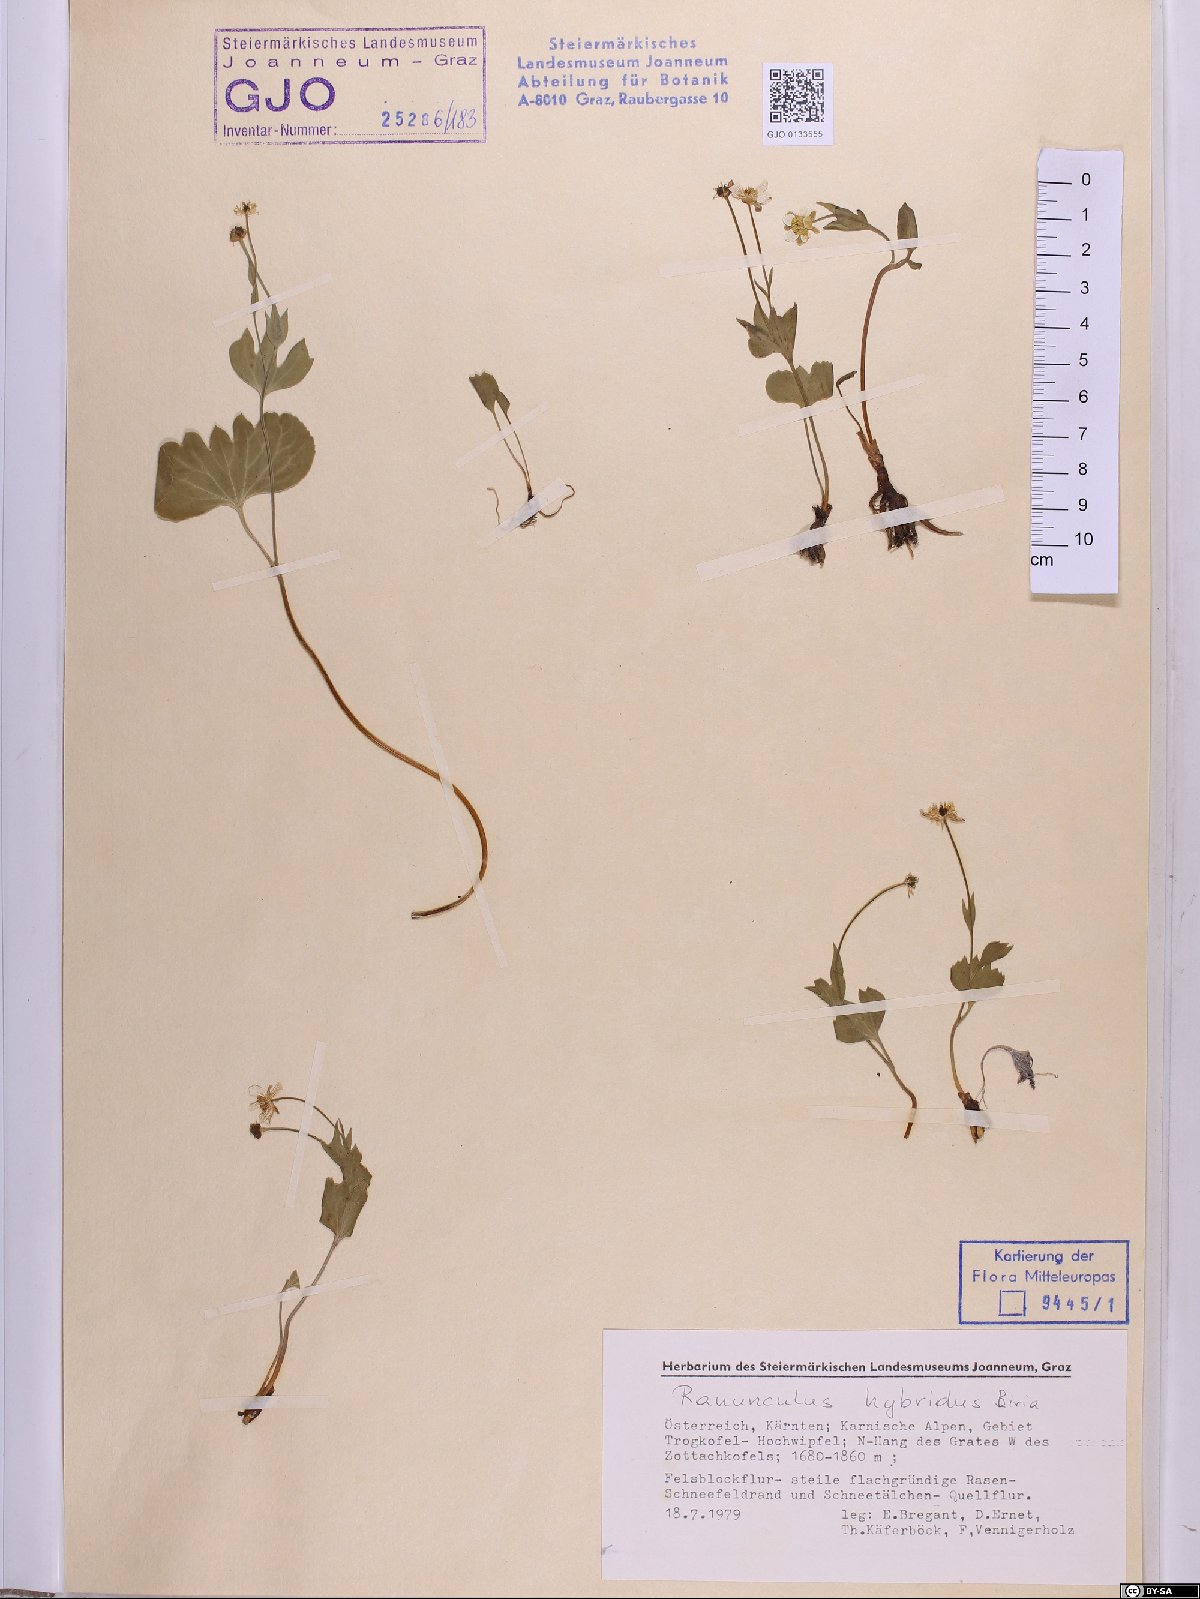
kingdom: Plantae
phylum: Tracheophyta
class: Magnoliopsida
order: Ranunculales
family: Ranunculaceae
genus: Ranunculus
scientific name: Ranunculus hybridus
